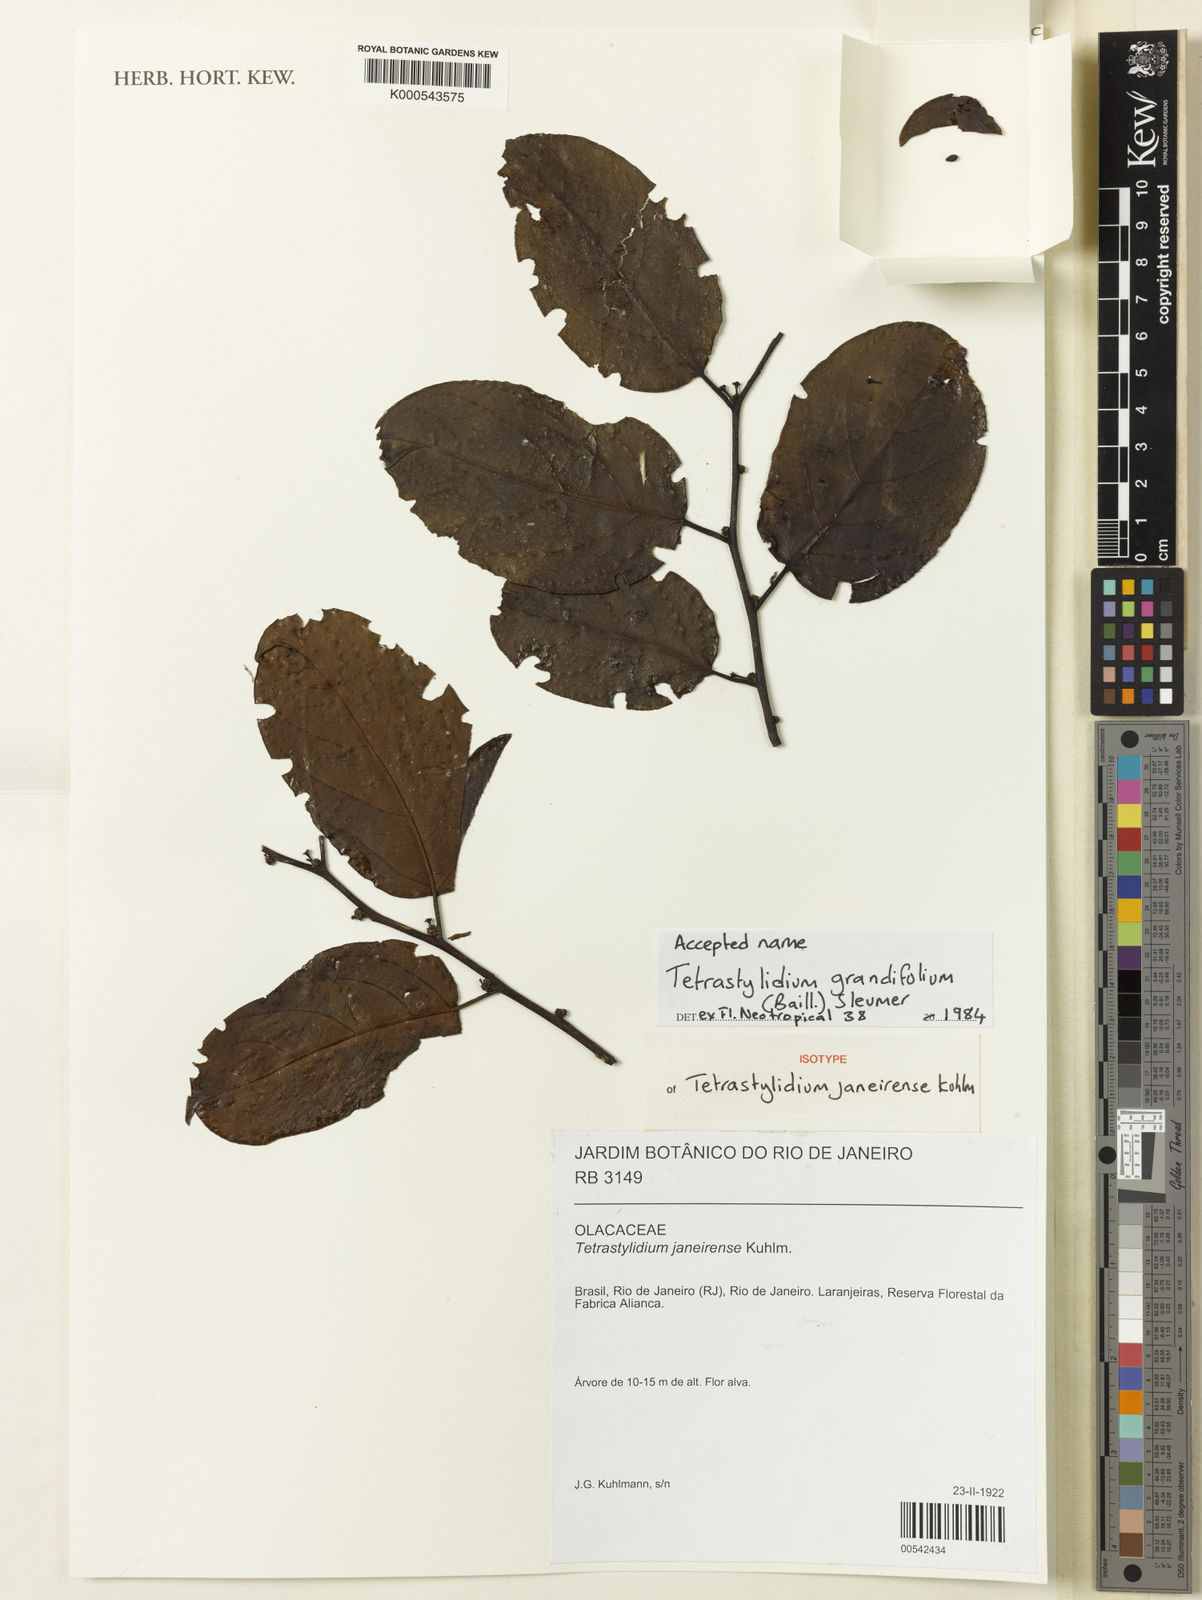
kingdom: Plantae
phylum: Tracheophyta
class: Magnoliopsida
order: Santalales
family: Strombosiaceae
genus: Tetrastylidium
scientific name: Tetrastylidium grandifolium
